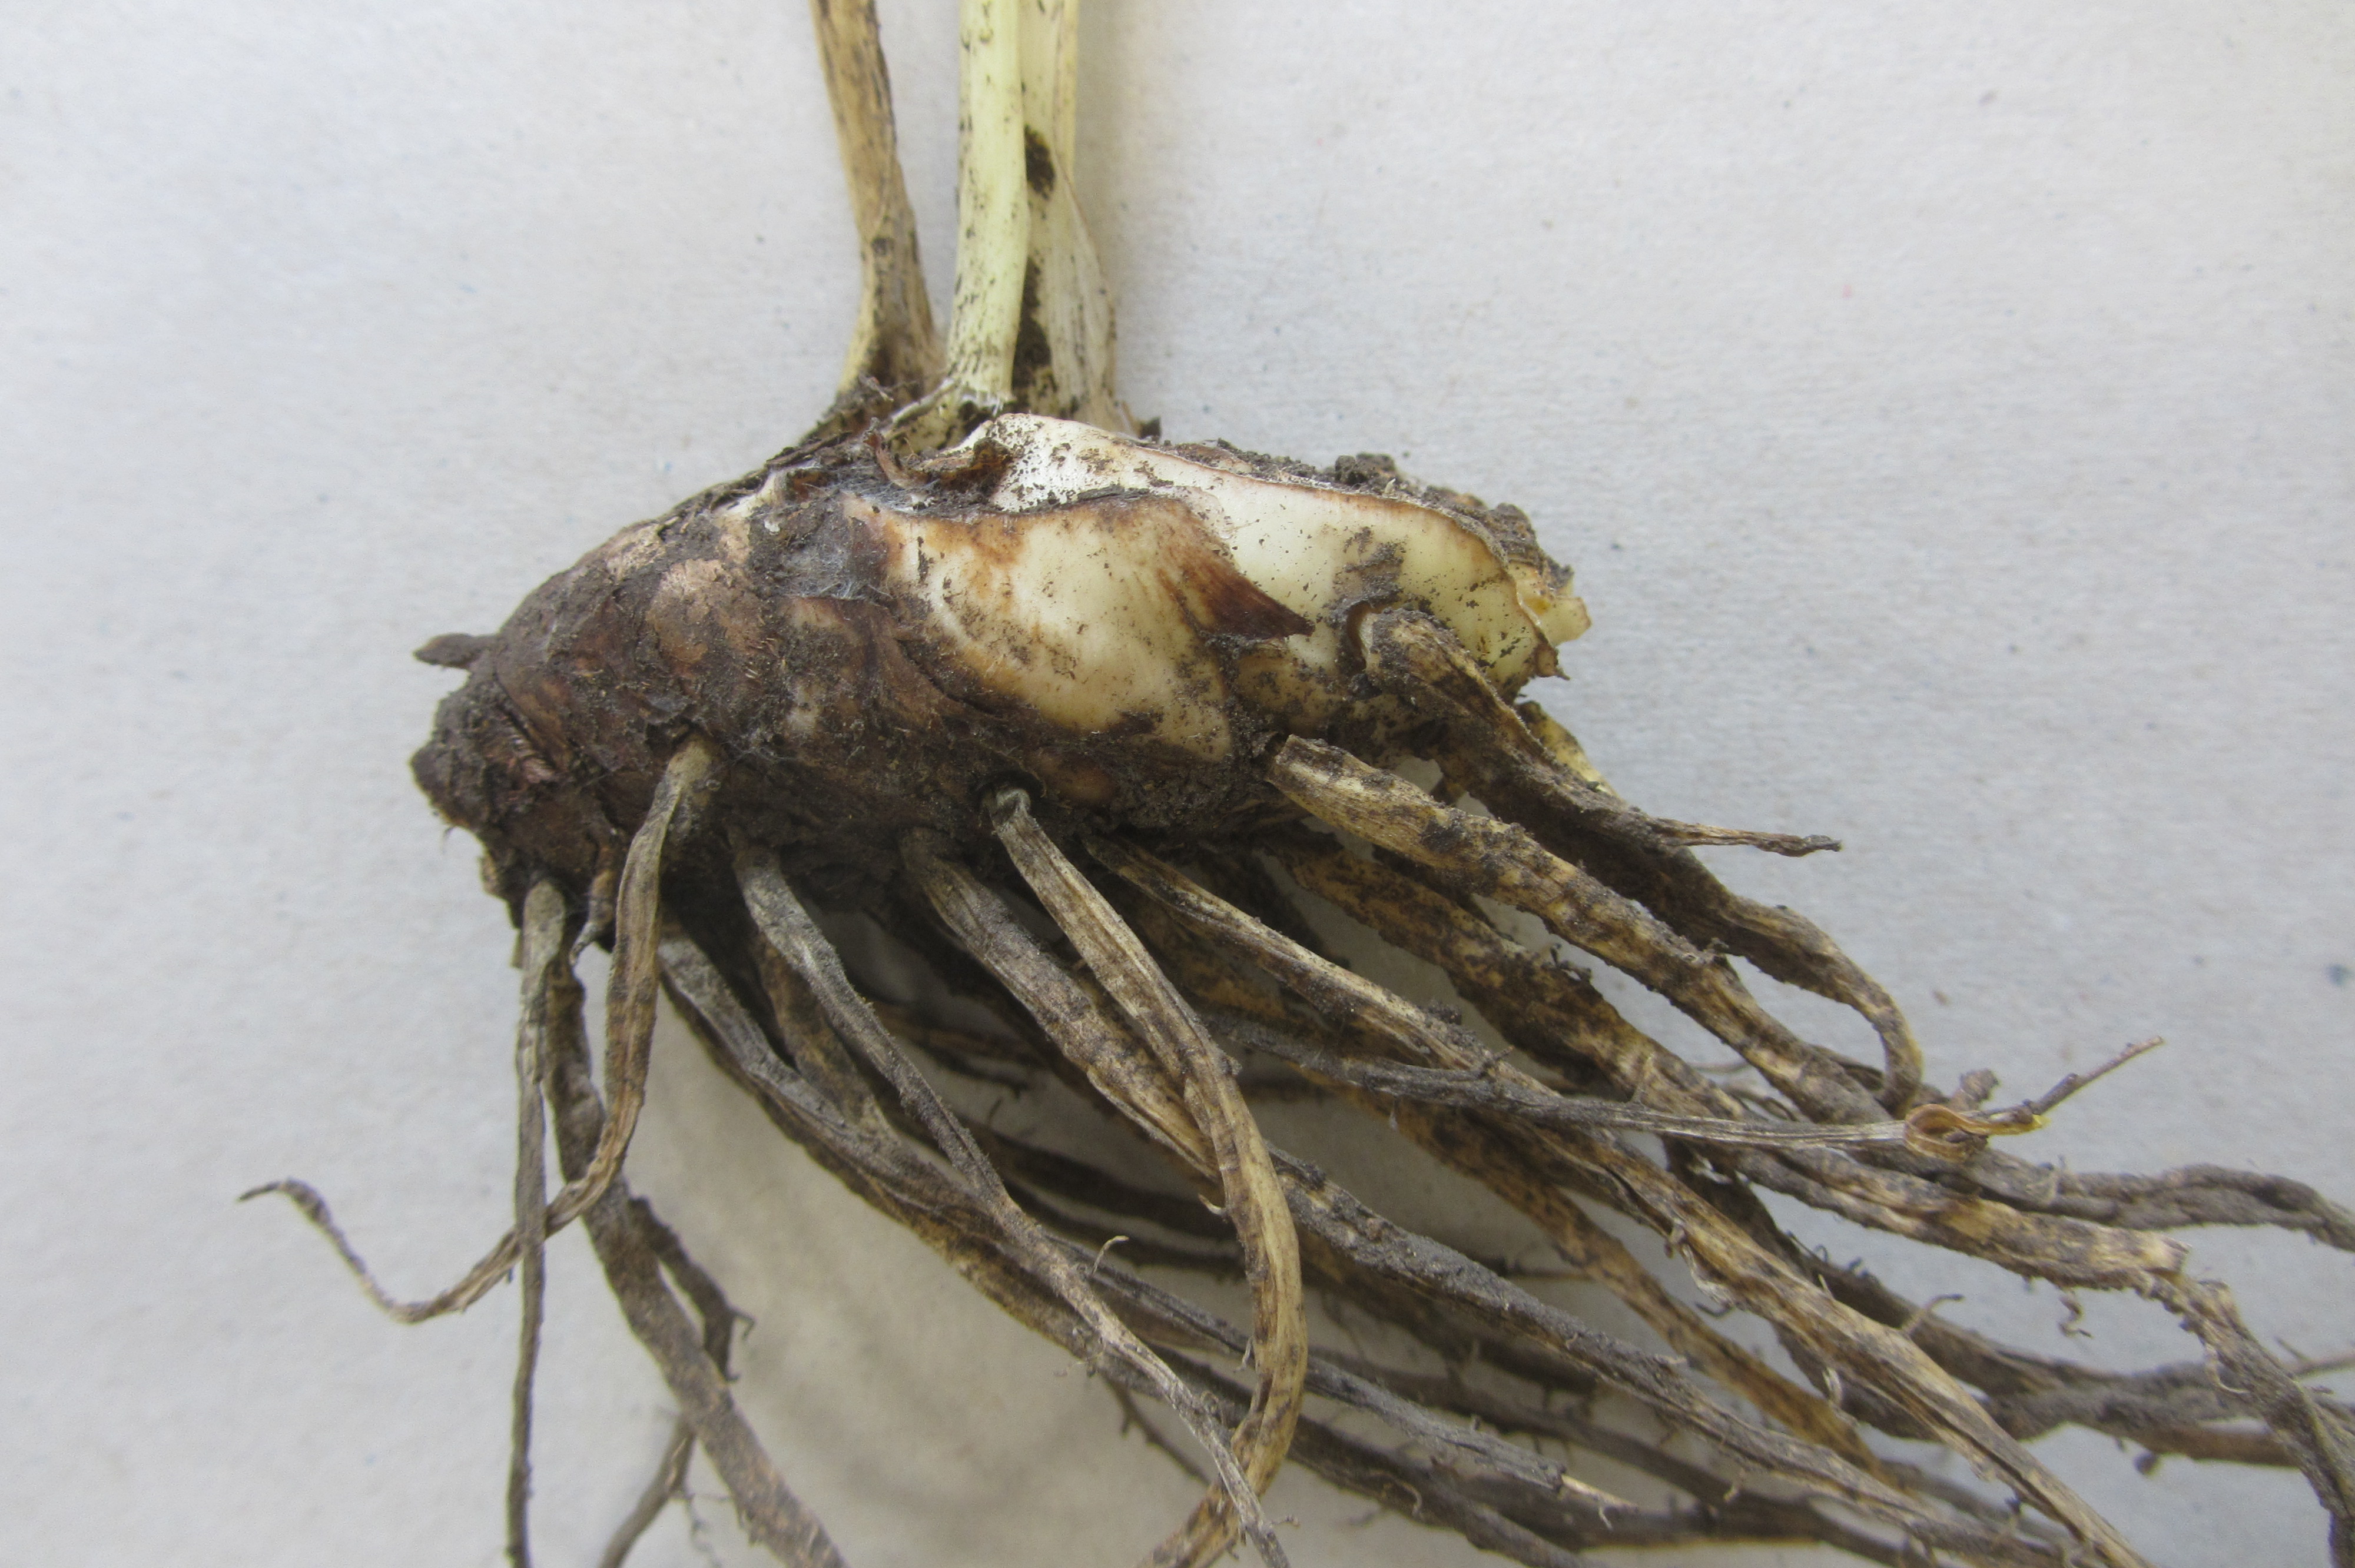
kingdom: Plantae
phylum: Tracheophyta
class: Liliopsida
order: Asparagales
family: Iridaceae
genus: Iris
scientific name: Iris
